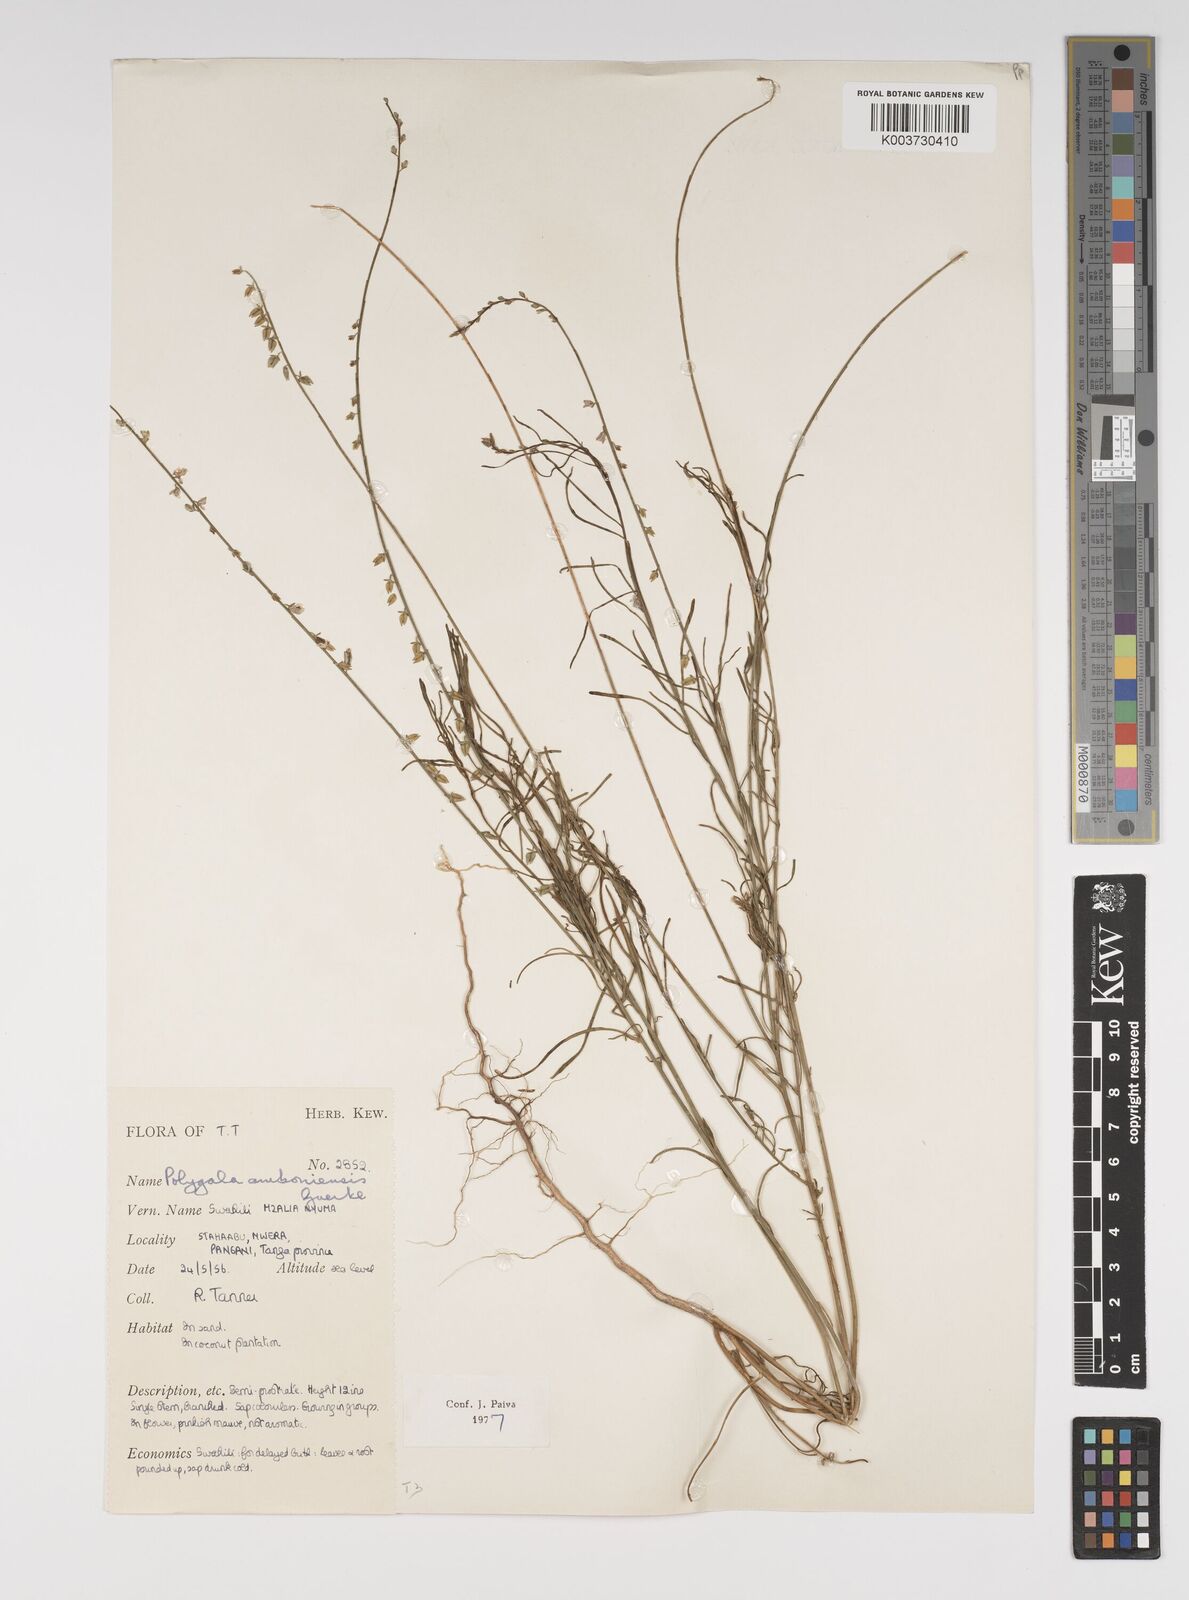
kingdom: Plantae
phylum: Tracheophyta
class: Magnoliopsida
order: Fabales
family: Polygalaceae
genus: Polygala
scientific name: Polygala amboniensis
